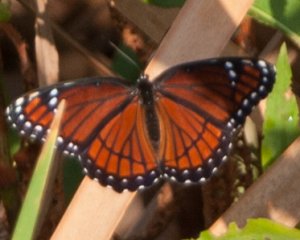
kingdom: Animalia
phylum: Arthropoda
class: Insecta
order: Lepidoptera
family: Nymphalidae
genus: Limenitis
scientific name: Limenitis archippus
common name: Viceroy
